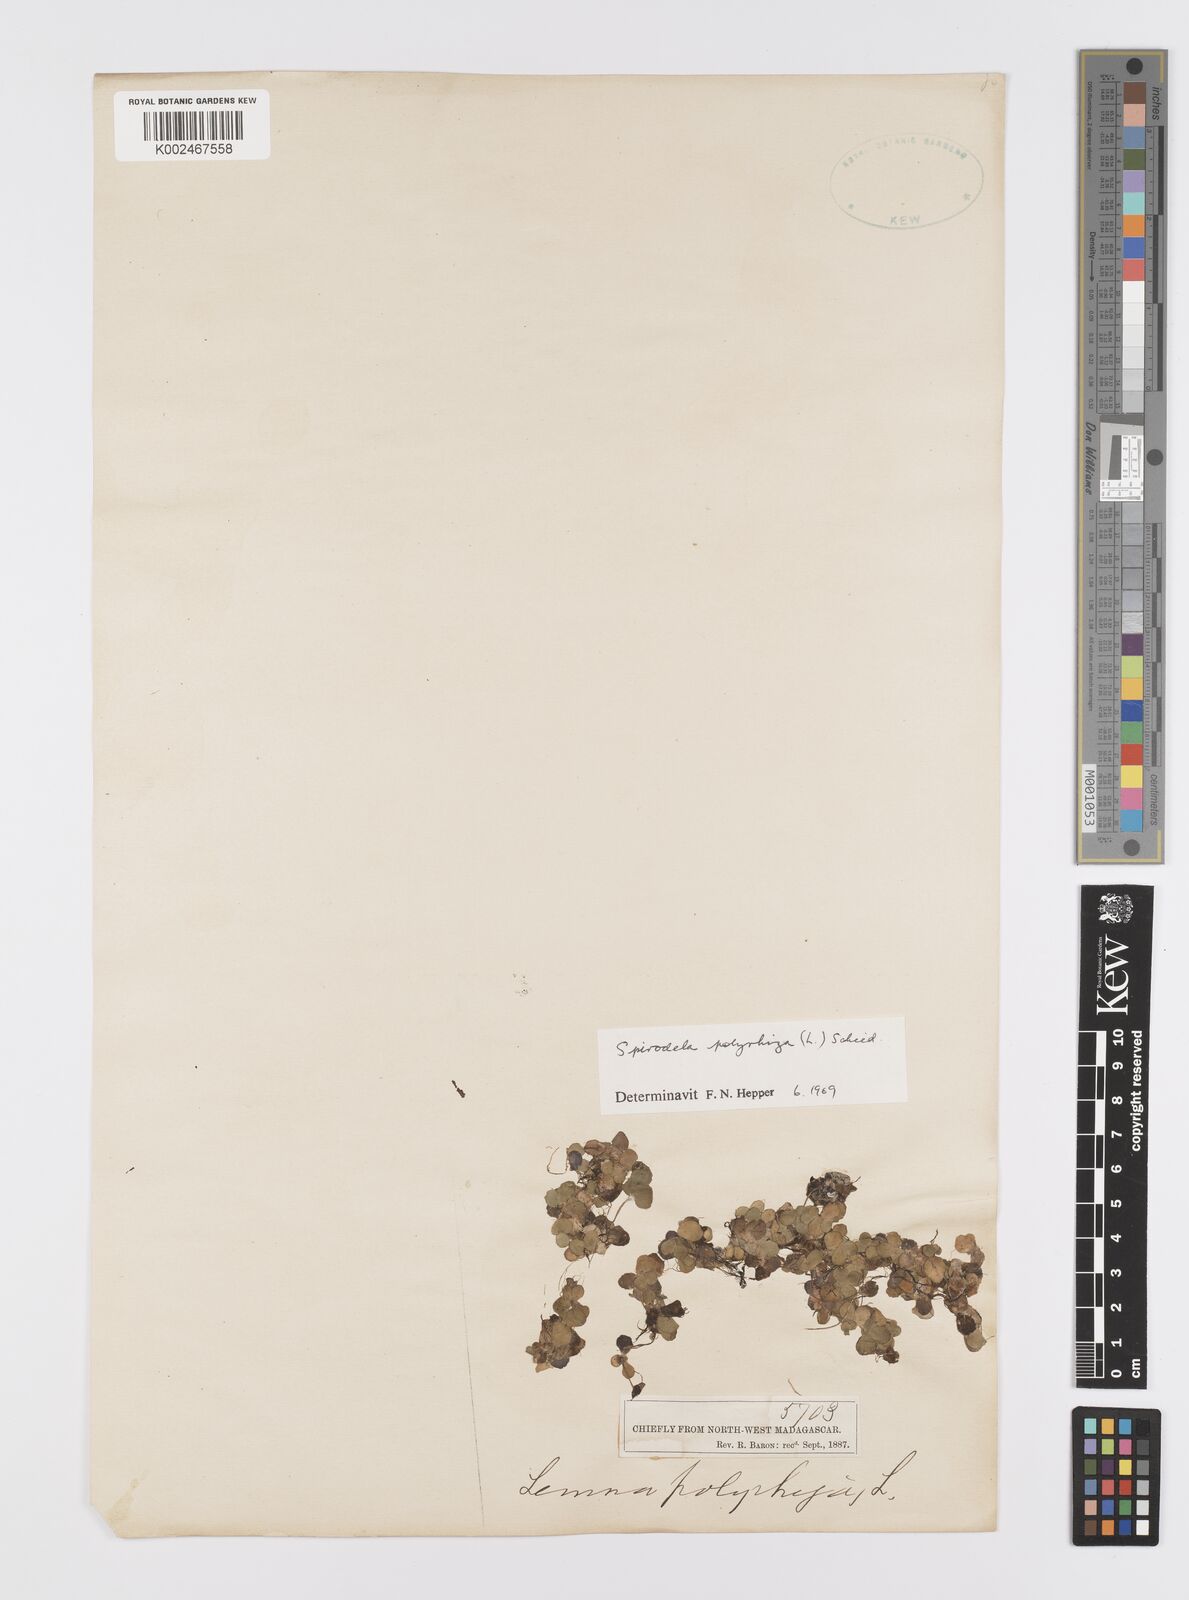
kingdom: Plantae
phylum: Tracheophyta
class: Liliopsida
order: Alismatales
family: Araceae
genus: Spirodela
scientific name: Spirodela polyrhiza
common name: Great duckweed
